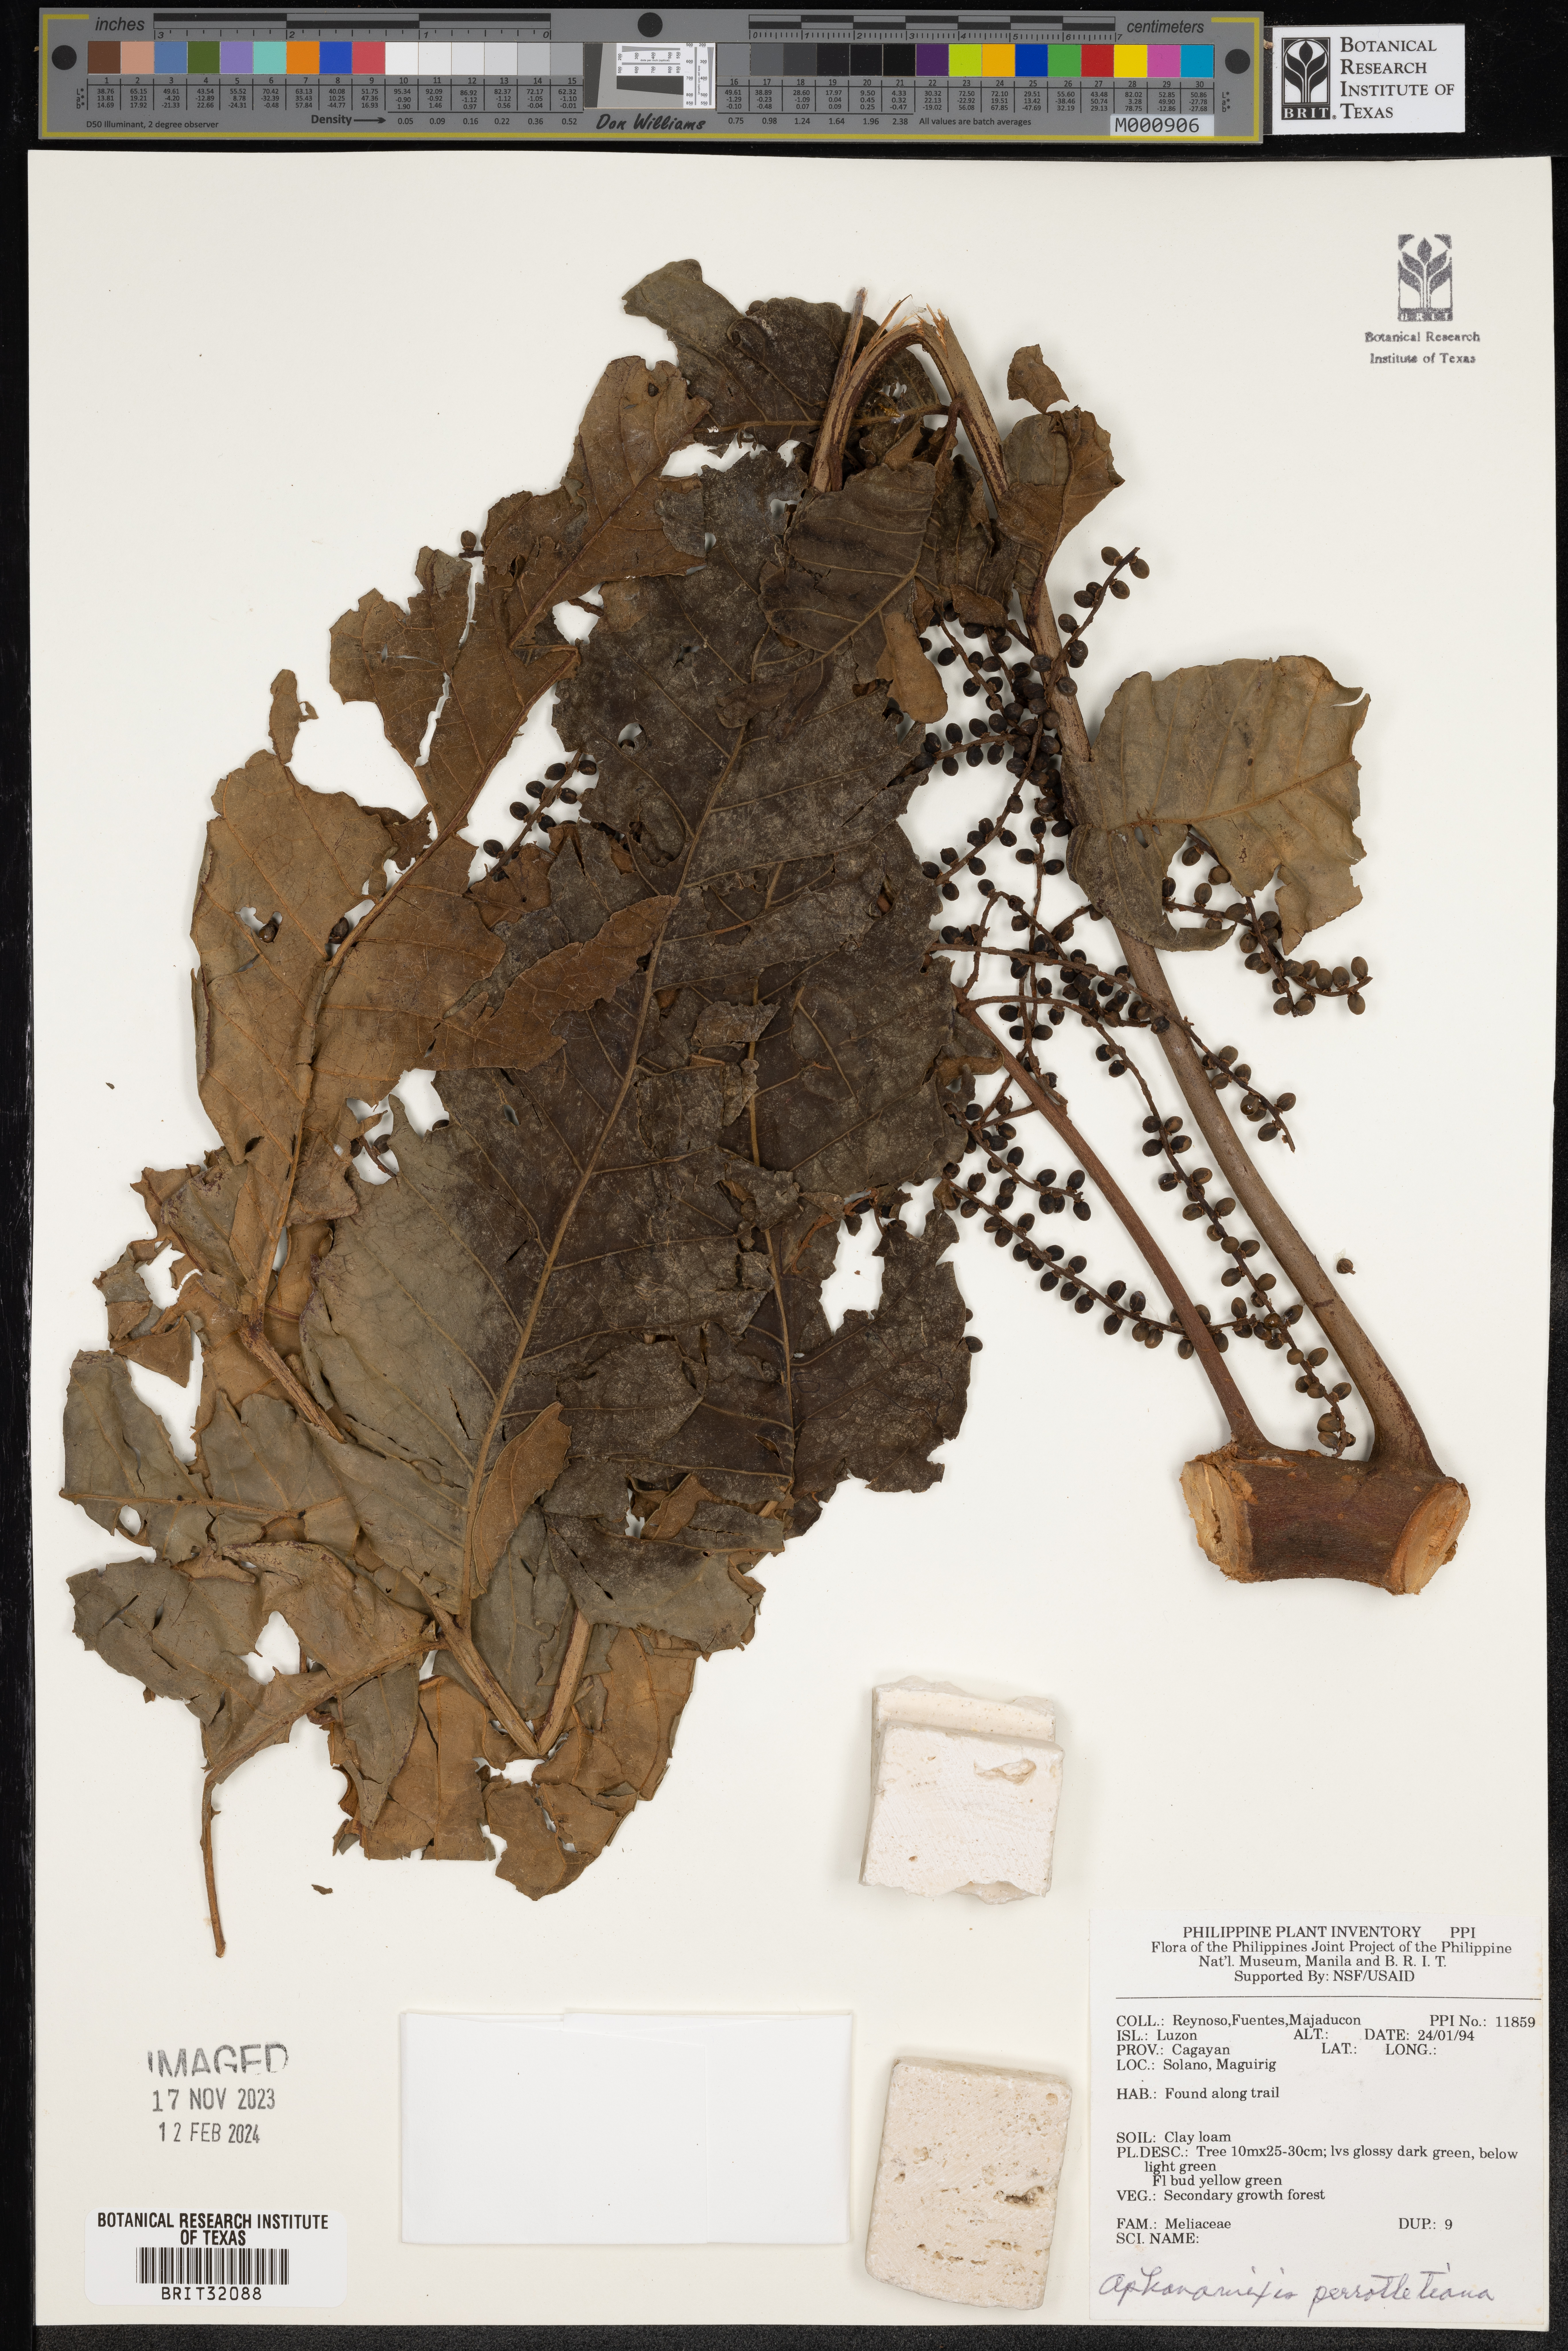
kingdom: Plantae
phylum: Tracheophyta
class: Magnoliopsida
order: Sapindales
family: Meliaceae
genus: Aphanamixis
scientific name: Aphanamixis polystachya
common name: Pithraj tree
